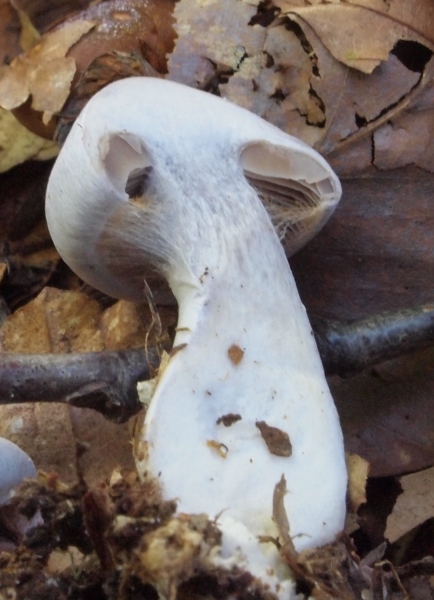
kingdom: Fungi
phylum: Basidiomycota
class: Agaricomycetes
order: Agaricales
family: Cortinariaceae
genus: Cortinarius
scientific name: Cortinarius alboviolaceus
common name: lysviolet slørhat
